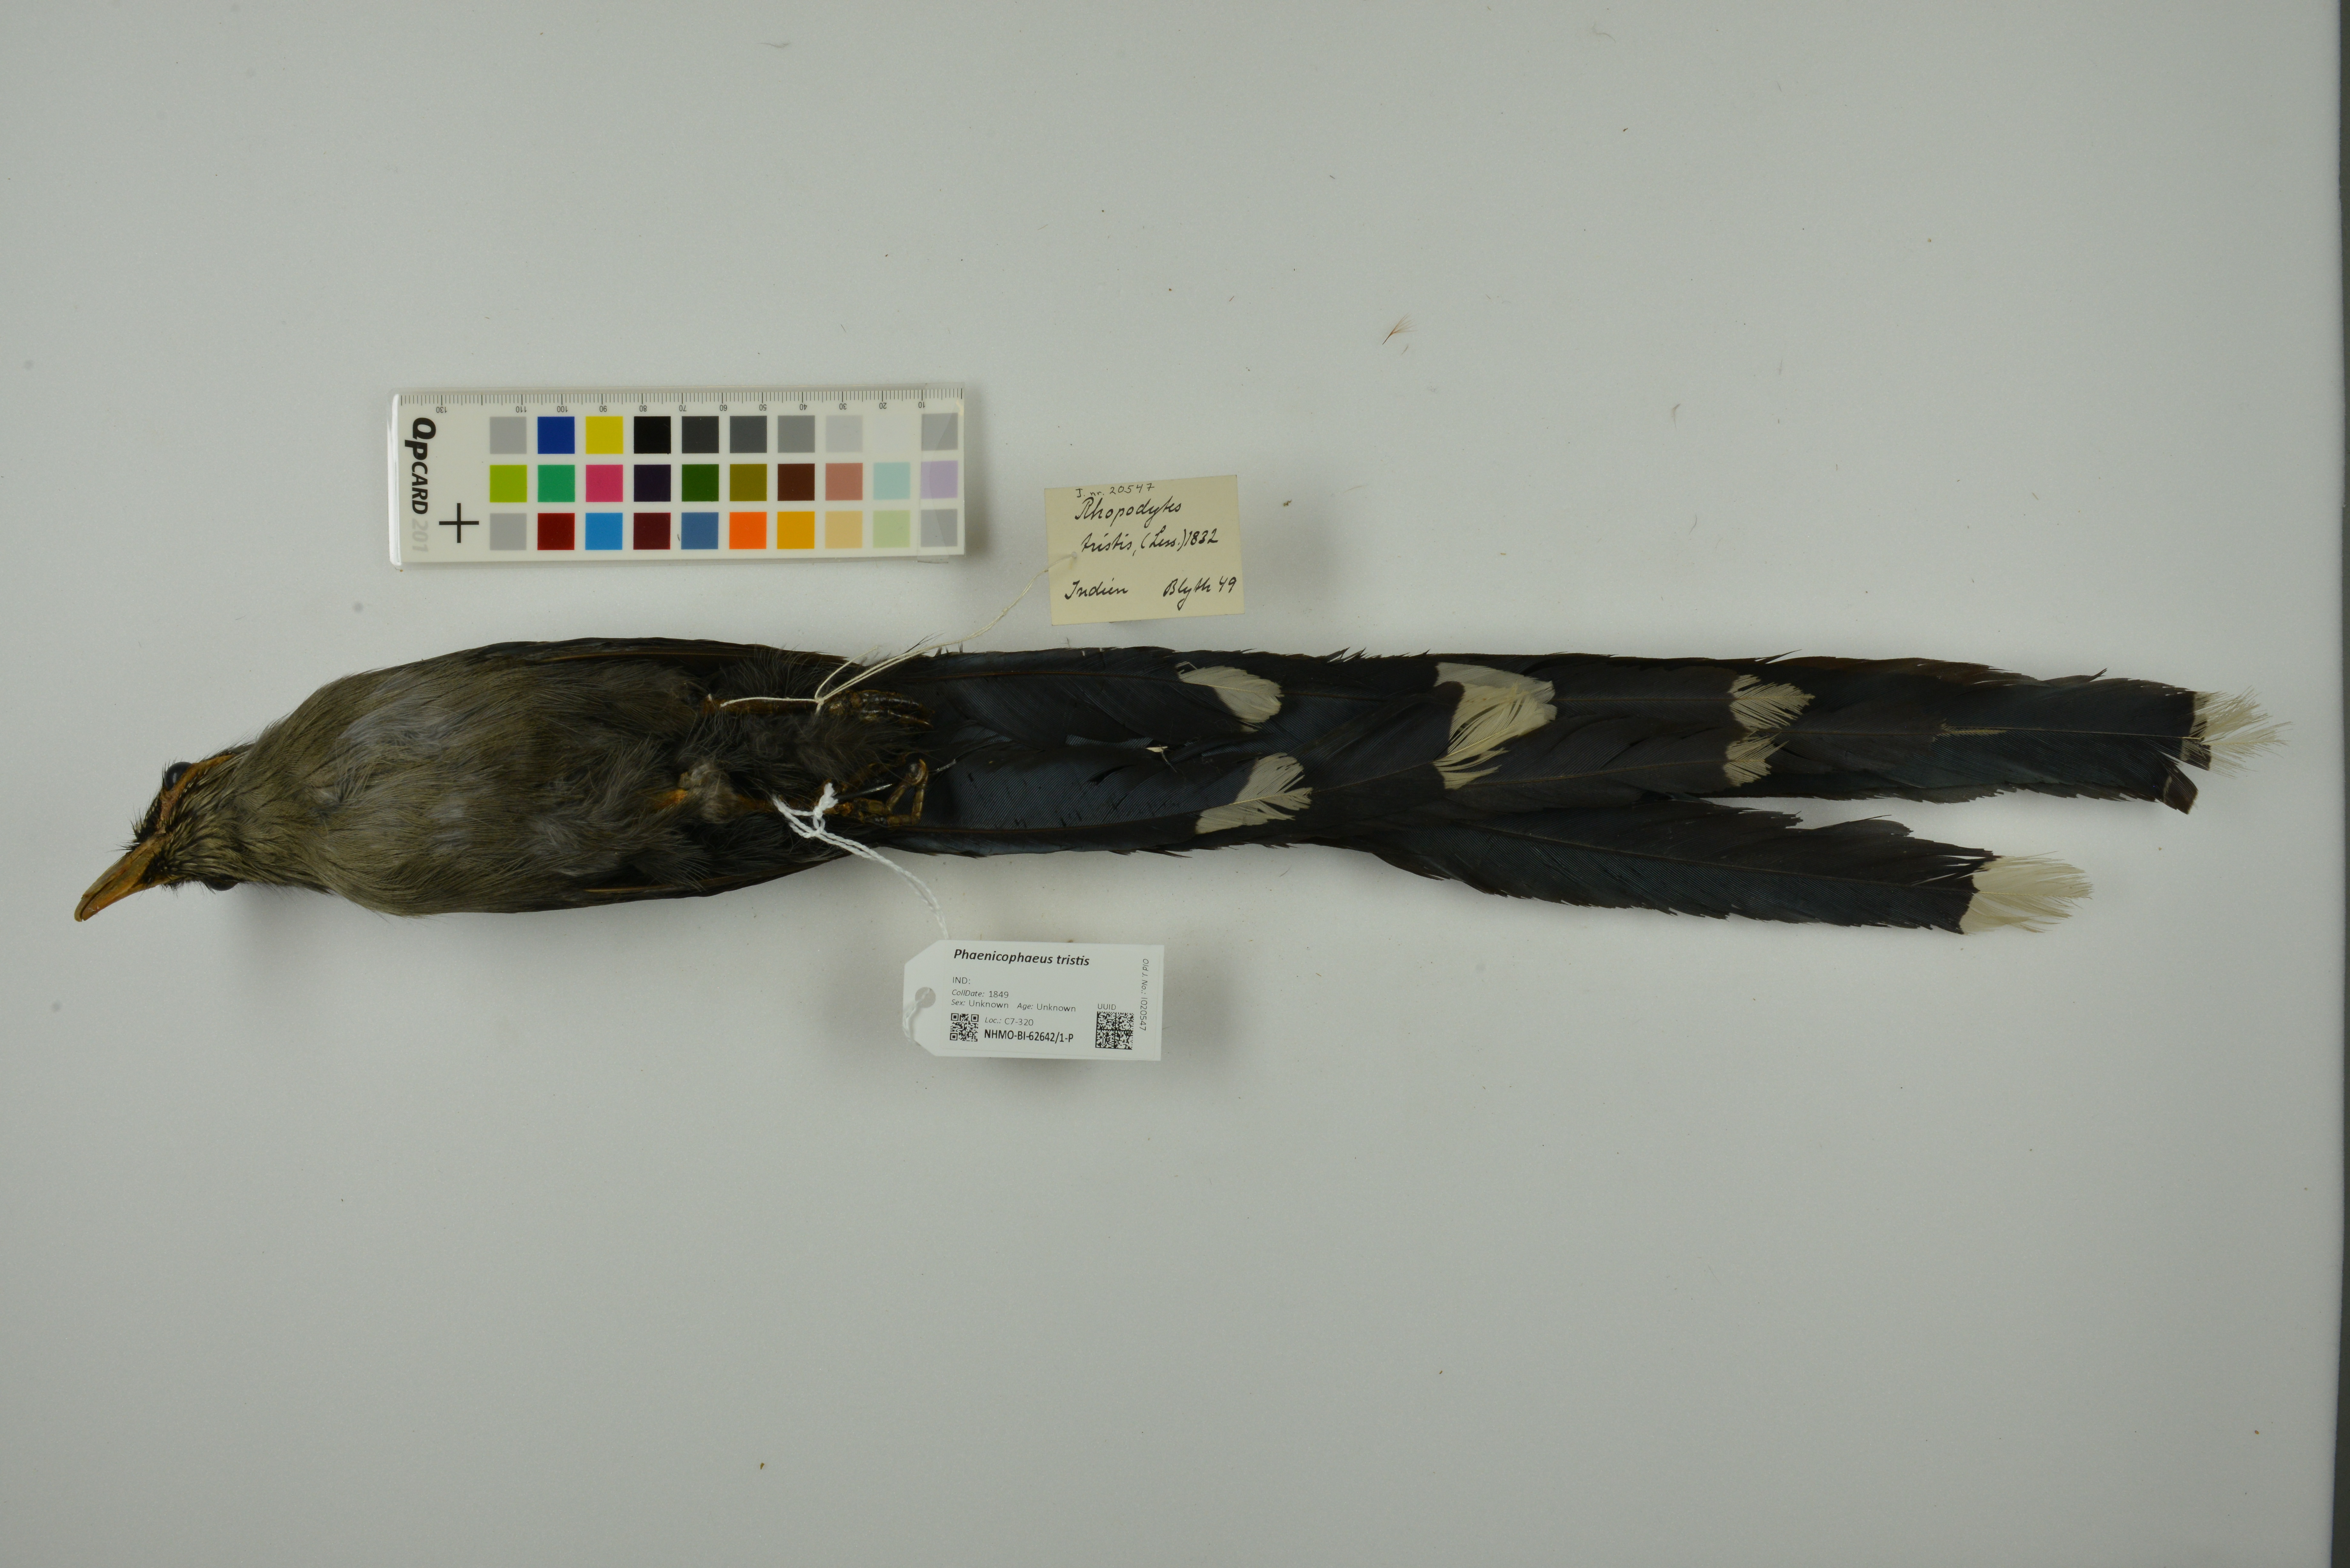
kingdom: Animalia
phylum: Chordata
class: Aves
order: Cuculiformes
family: Cuculidae
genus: Rhopodytes
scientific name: Rhopodytes tristis
